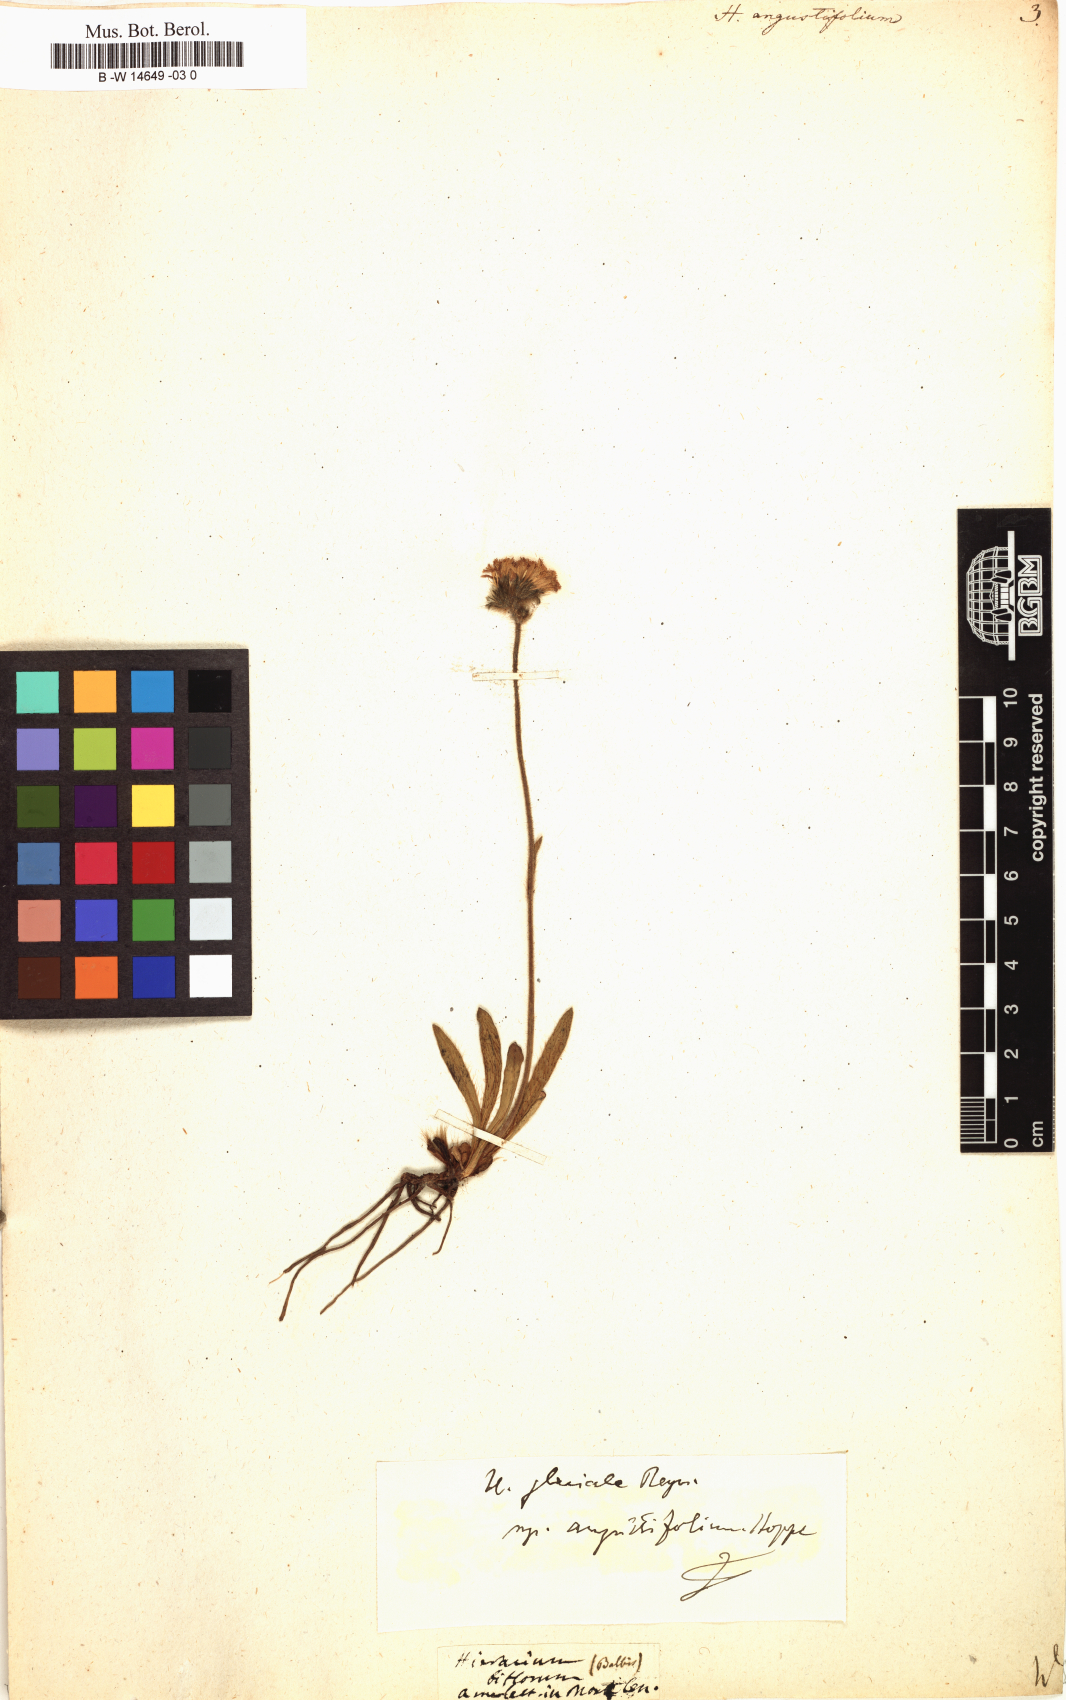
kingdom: Plantae
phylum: Tracheophyta
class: Magnoliopsida
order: Asterales
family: Asteraceae
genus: Hieracium
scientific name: Hieracium angustifolium
